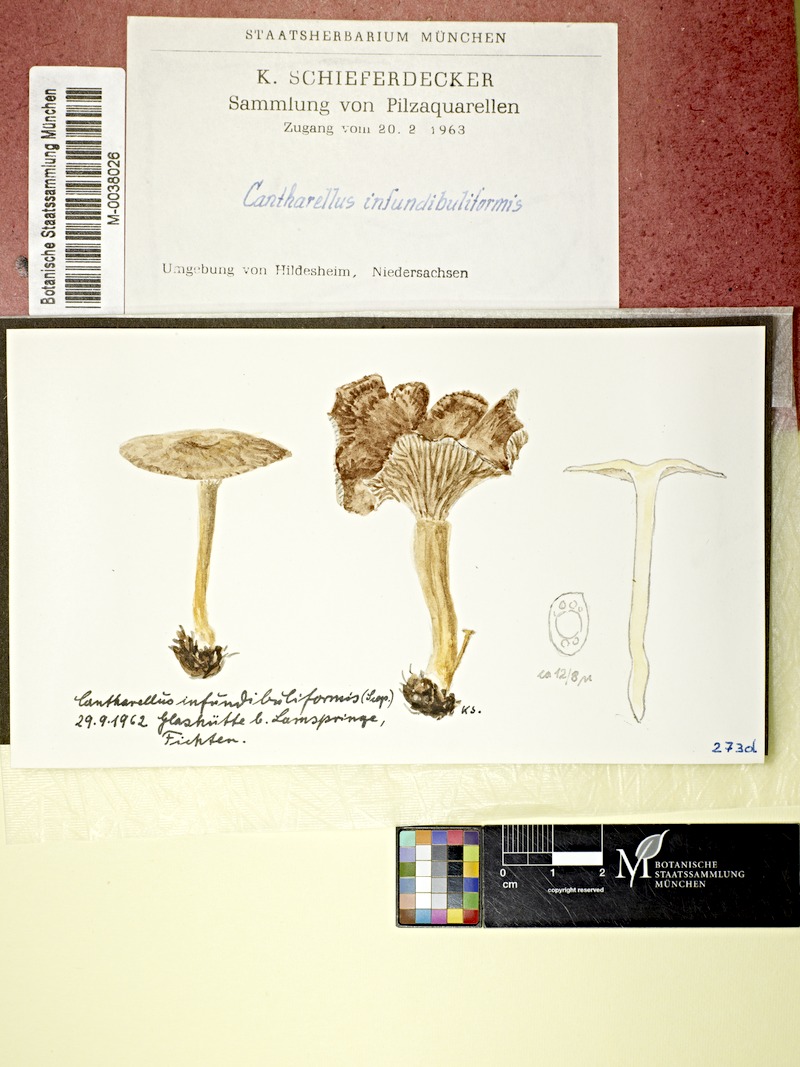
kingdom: Fungi
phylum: Basidiomycota
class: Agaricomycetes
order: Cantharellales
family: Hydnaceae
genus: Craterellus
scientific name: Craterellus tubaeformis
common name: Yellowfoot
